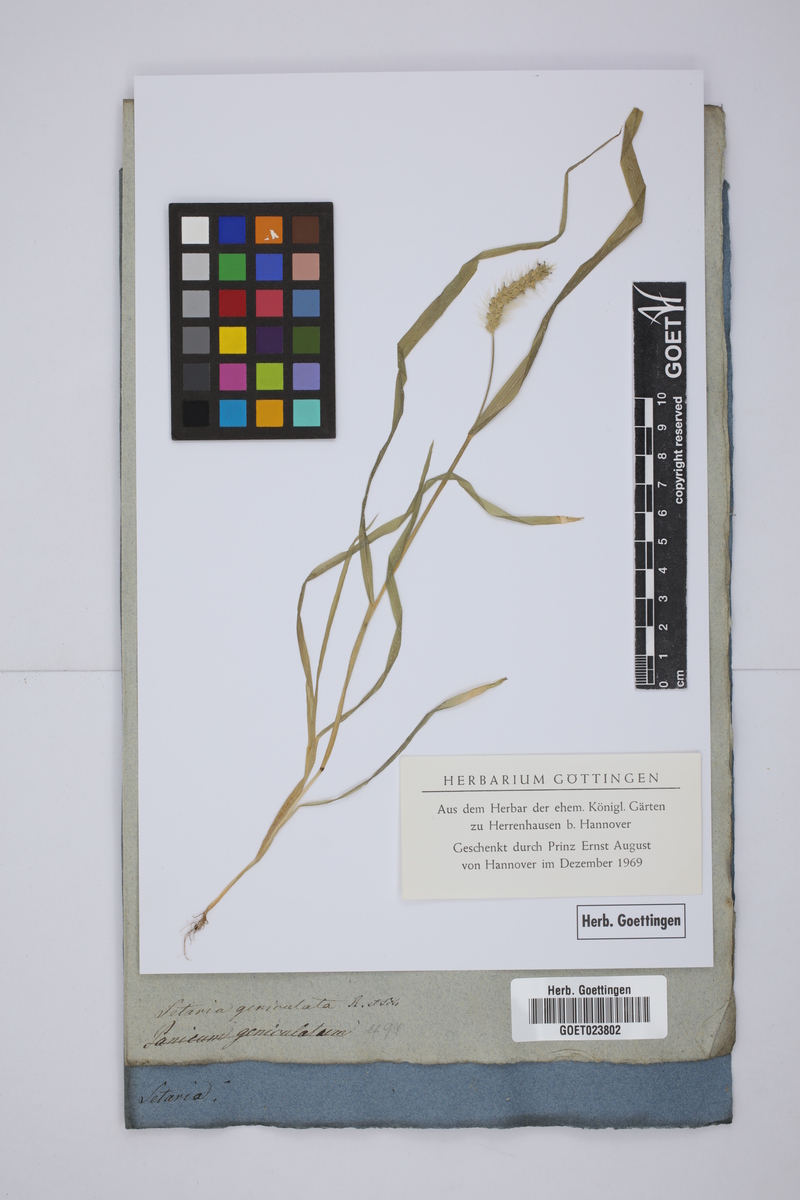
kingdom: Plantae
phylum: Tracheophyta
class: Liliopsida
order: Poales
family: Poaceae
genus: Setaria
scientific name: Setaria parviflora
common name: Knotroot bristle-grass
